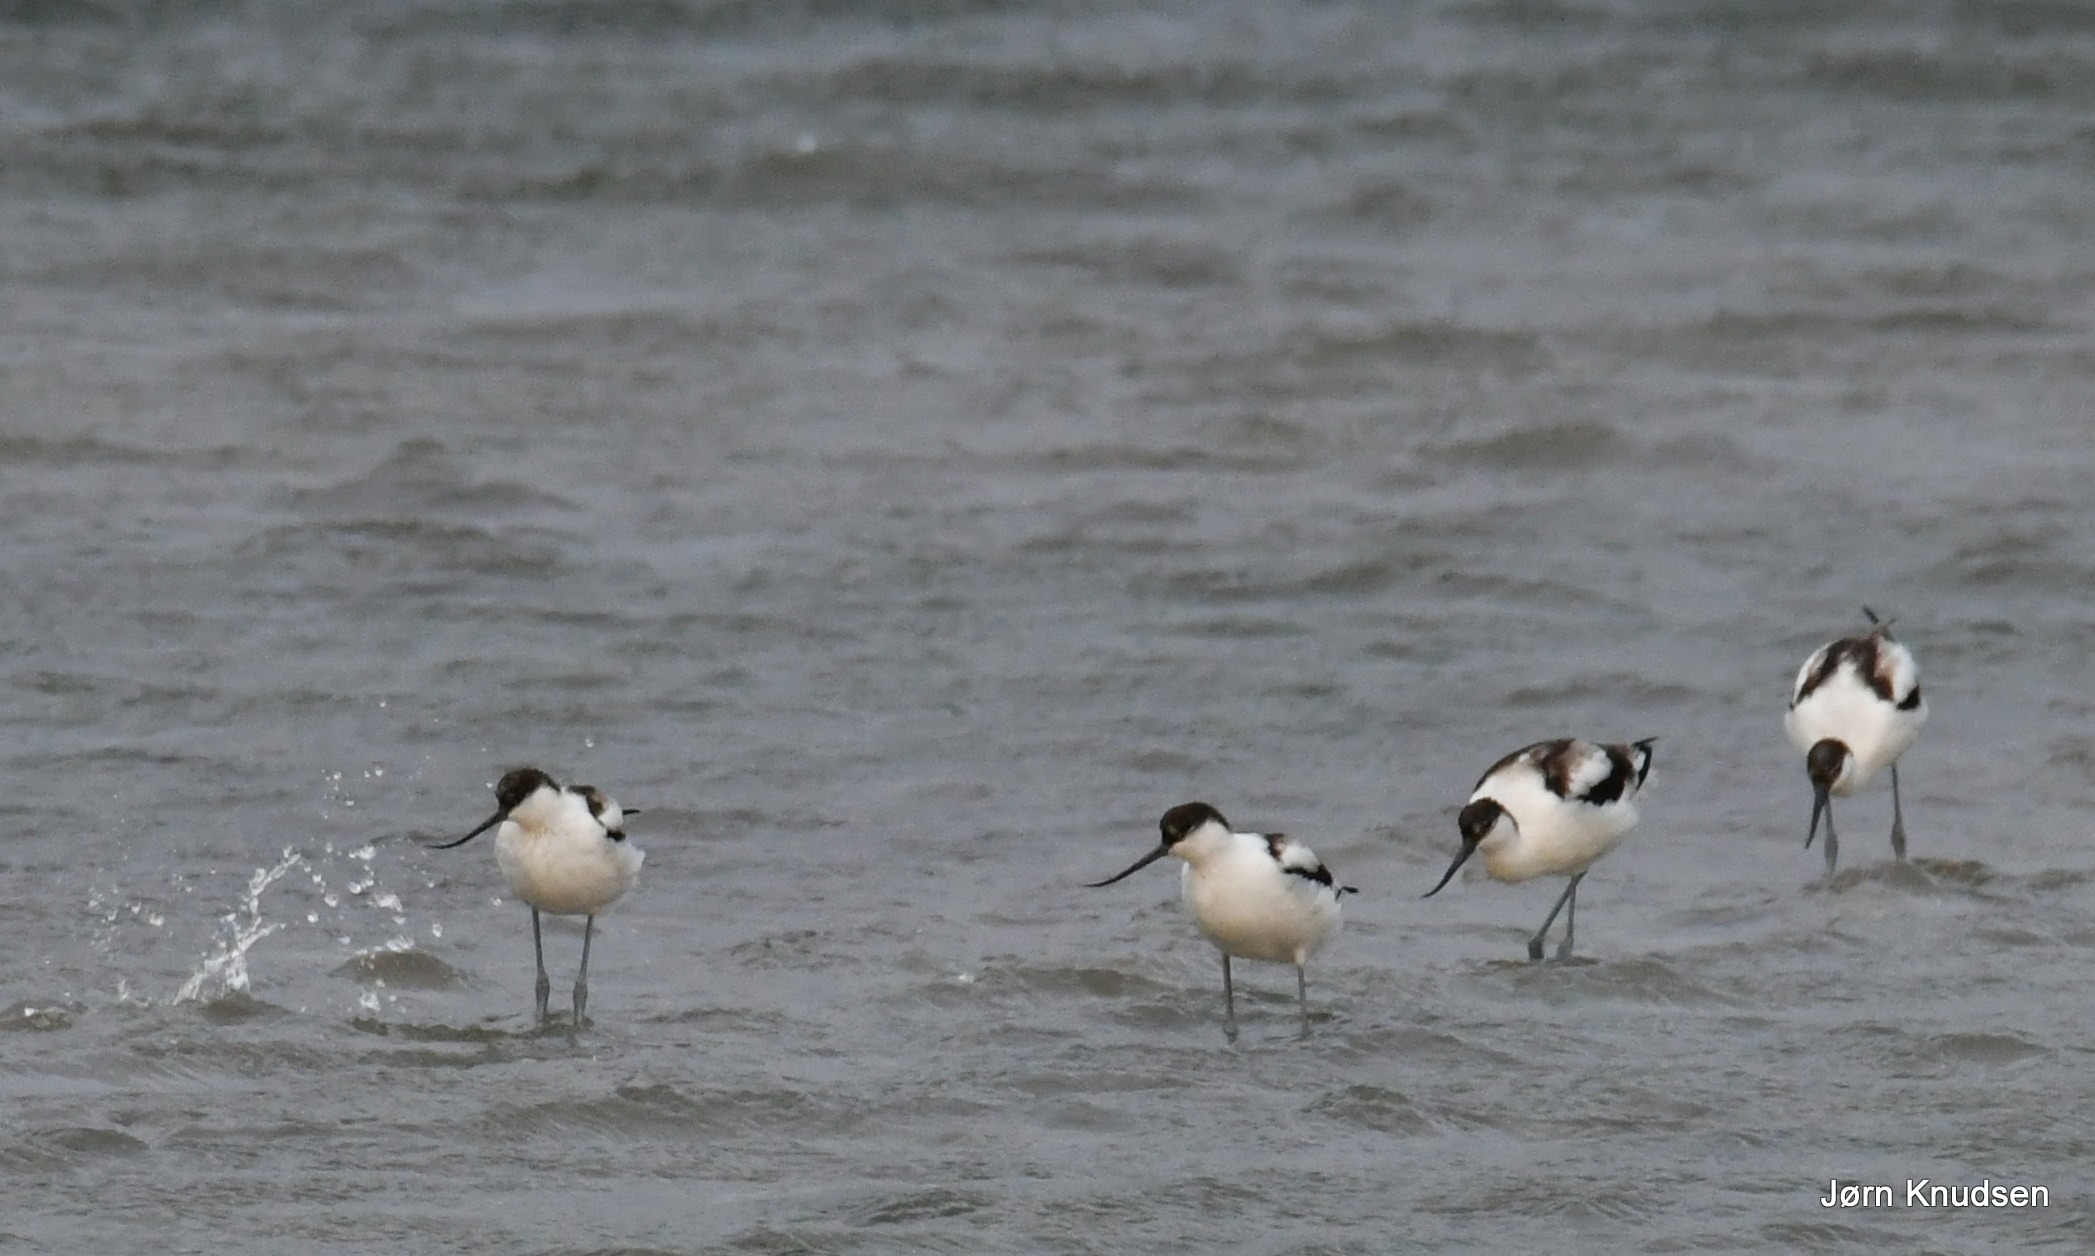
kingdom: Animalia
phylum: Chordata
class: Aves
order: Charadriiformes
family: Recurvirostridae
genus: Recurvirostra
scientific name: Recurvirostra avosetta
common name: Klyde
